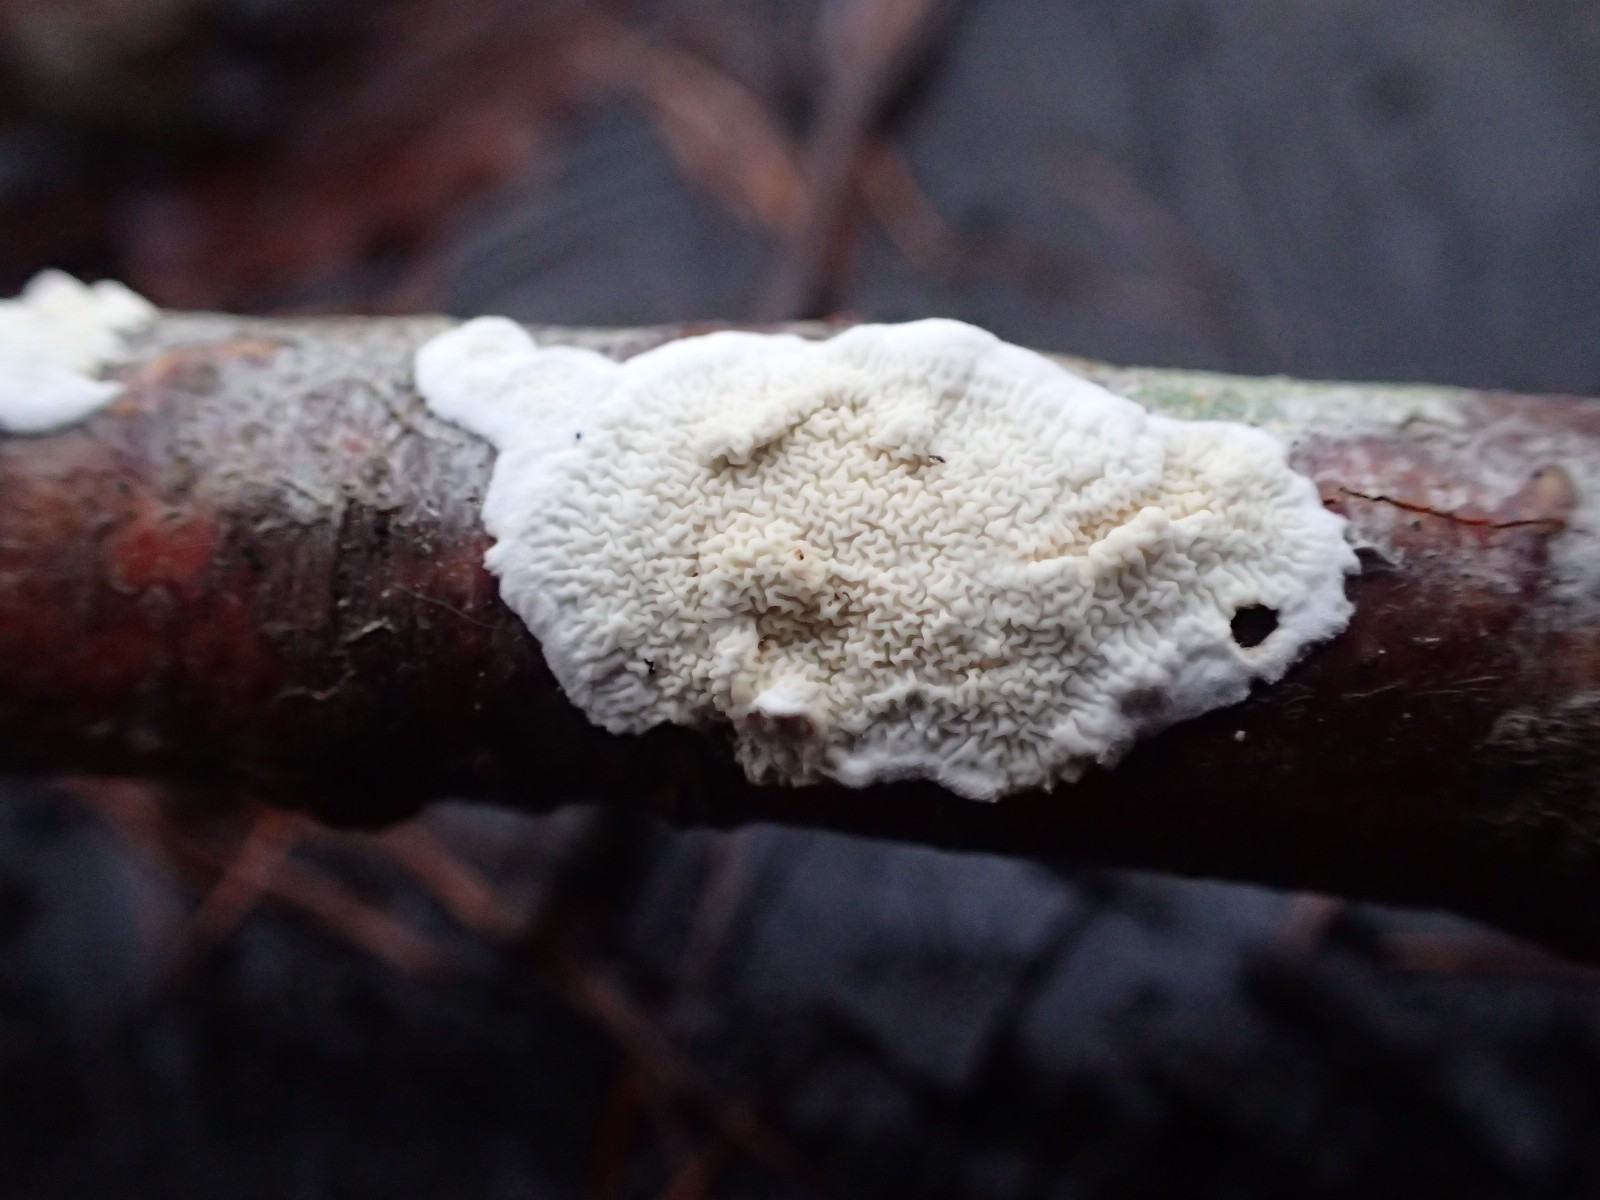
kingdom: Fungi
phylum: Basidiomycota
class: Agaricomycetes
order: Polyporales
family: Irpicaceae
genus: Byssomerulius
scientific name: Byssomerulius corium
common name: læder-åresvamp
